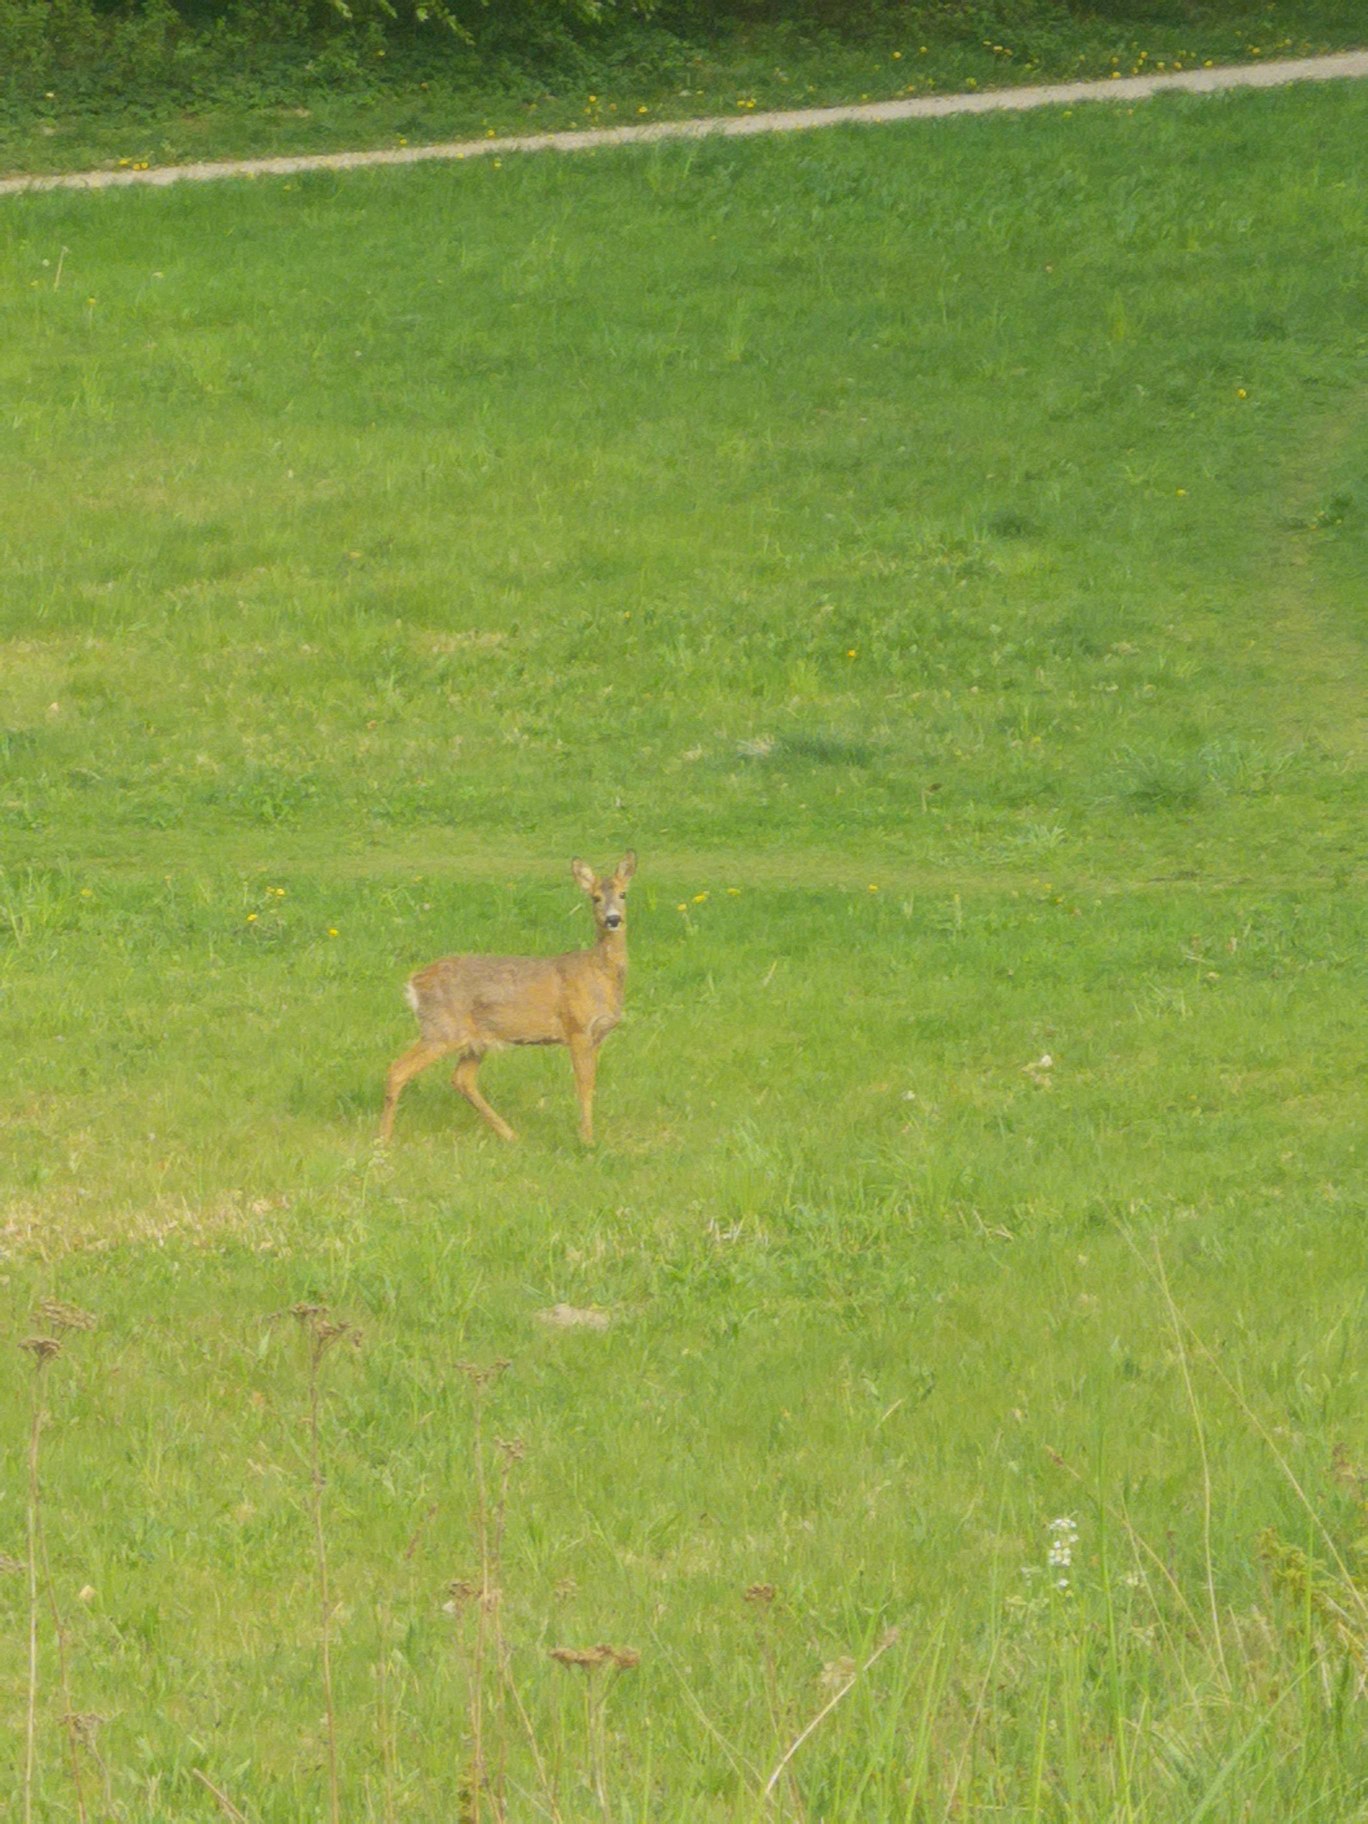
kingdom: Animalia
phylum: Chordata
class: Mammalia
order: Artiodactyla
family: Cervidae
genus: Capreolus
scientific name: Capreolus capreolus
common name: Rådyr
